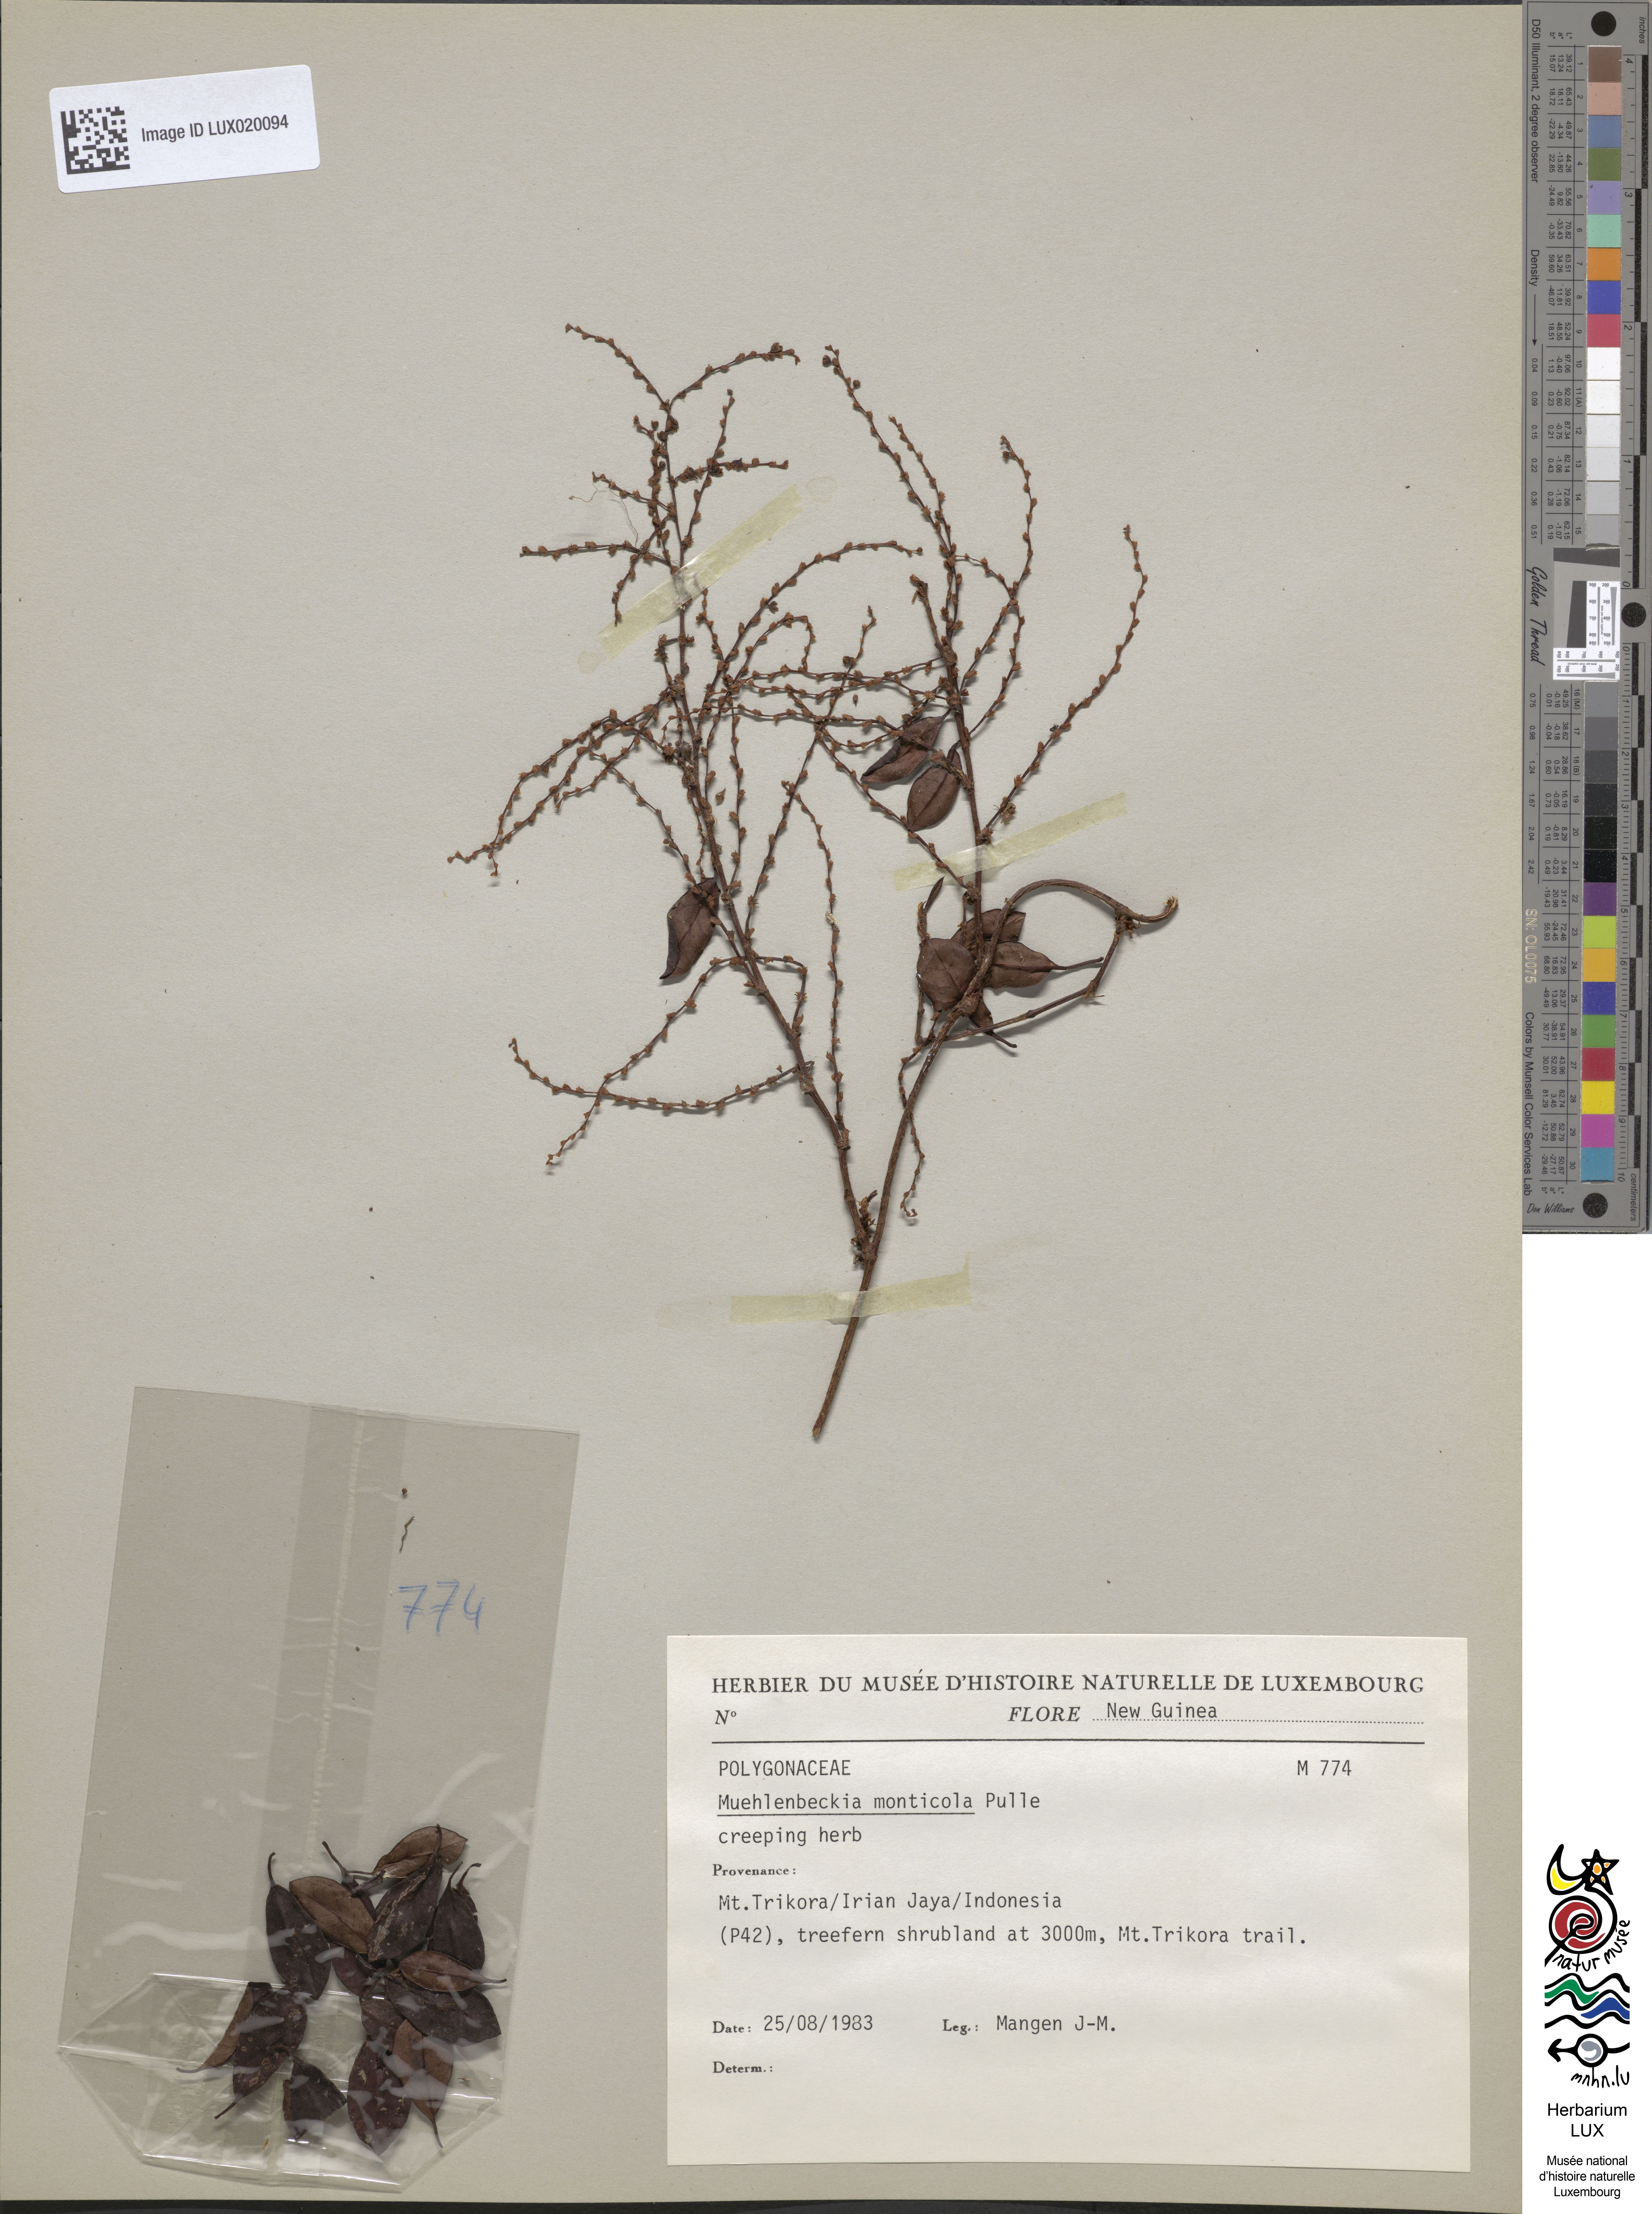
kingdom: Plantae
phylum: Tracheophyta
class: Magnoliopsida
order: Caryophyllales
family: Polygonaceae
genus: Muehlenbeckia
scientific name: Muehlenbeckia monticola
